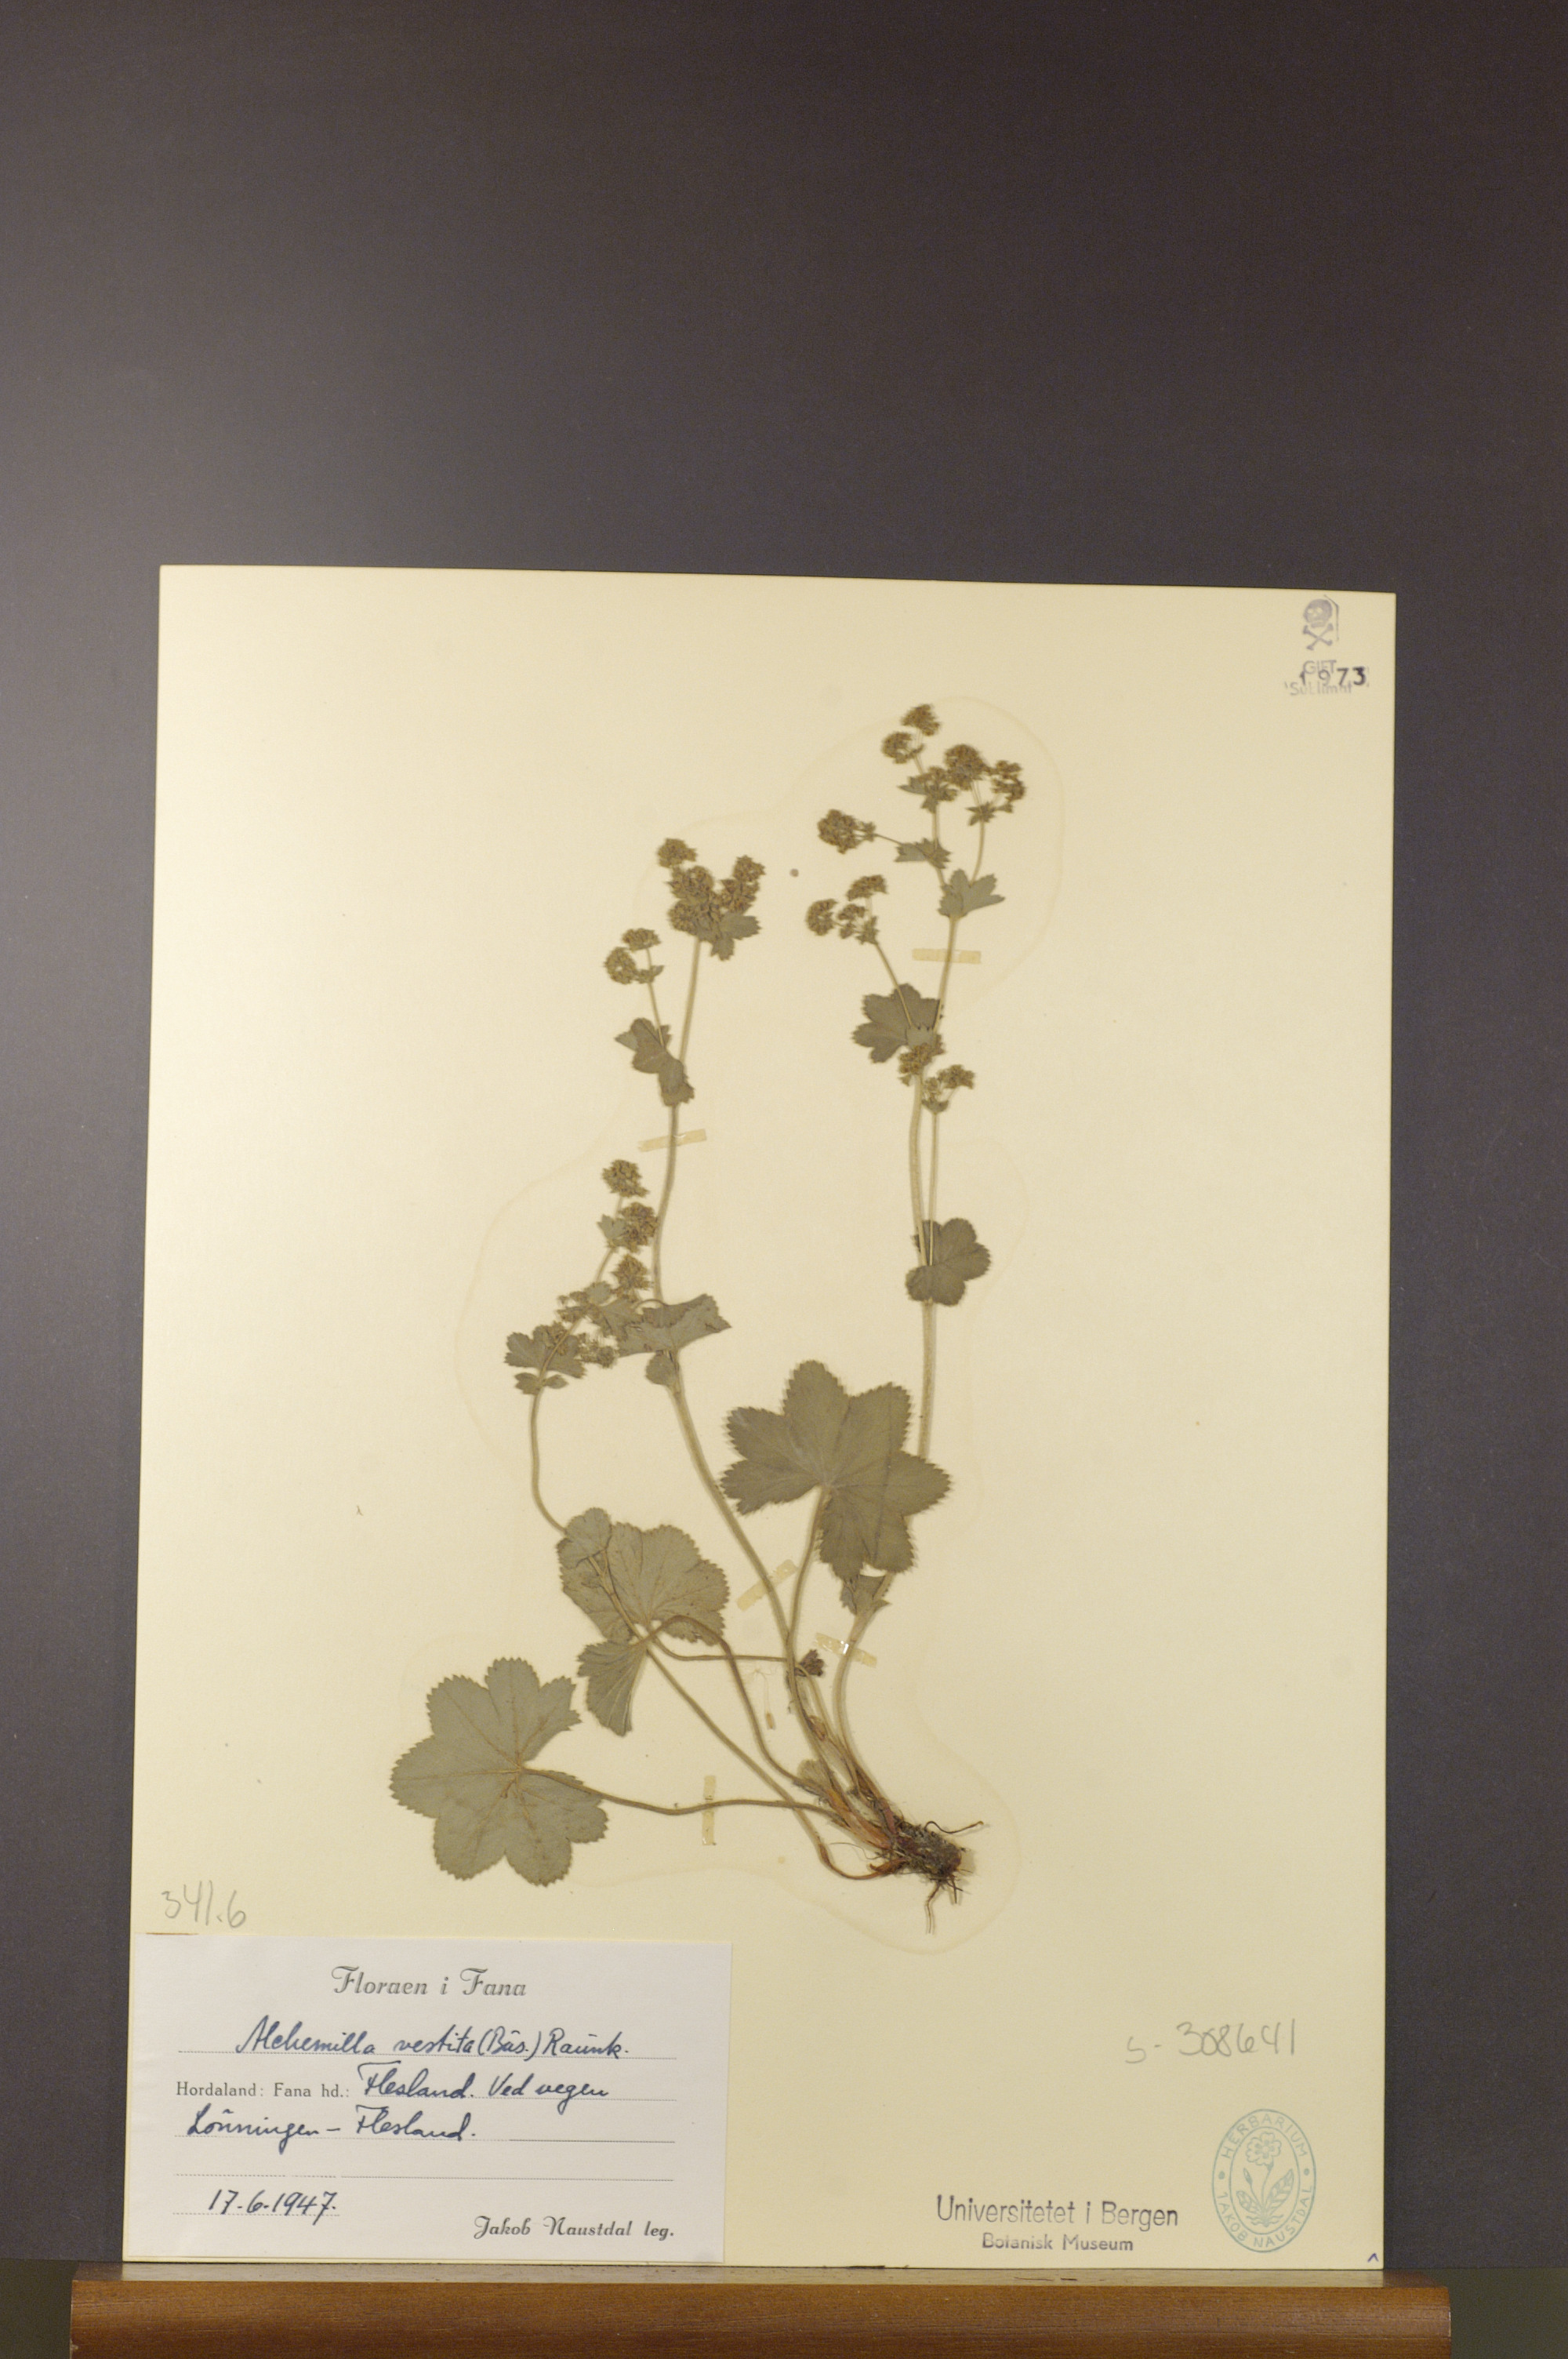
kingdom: Plantae
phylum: Tracheophyta
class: Magnoliopsida
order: Rosales
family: Rosaceae
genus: Alchemilla
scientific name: Alchemilla filicaulis
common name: Hairy lady's-mantle
